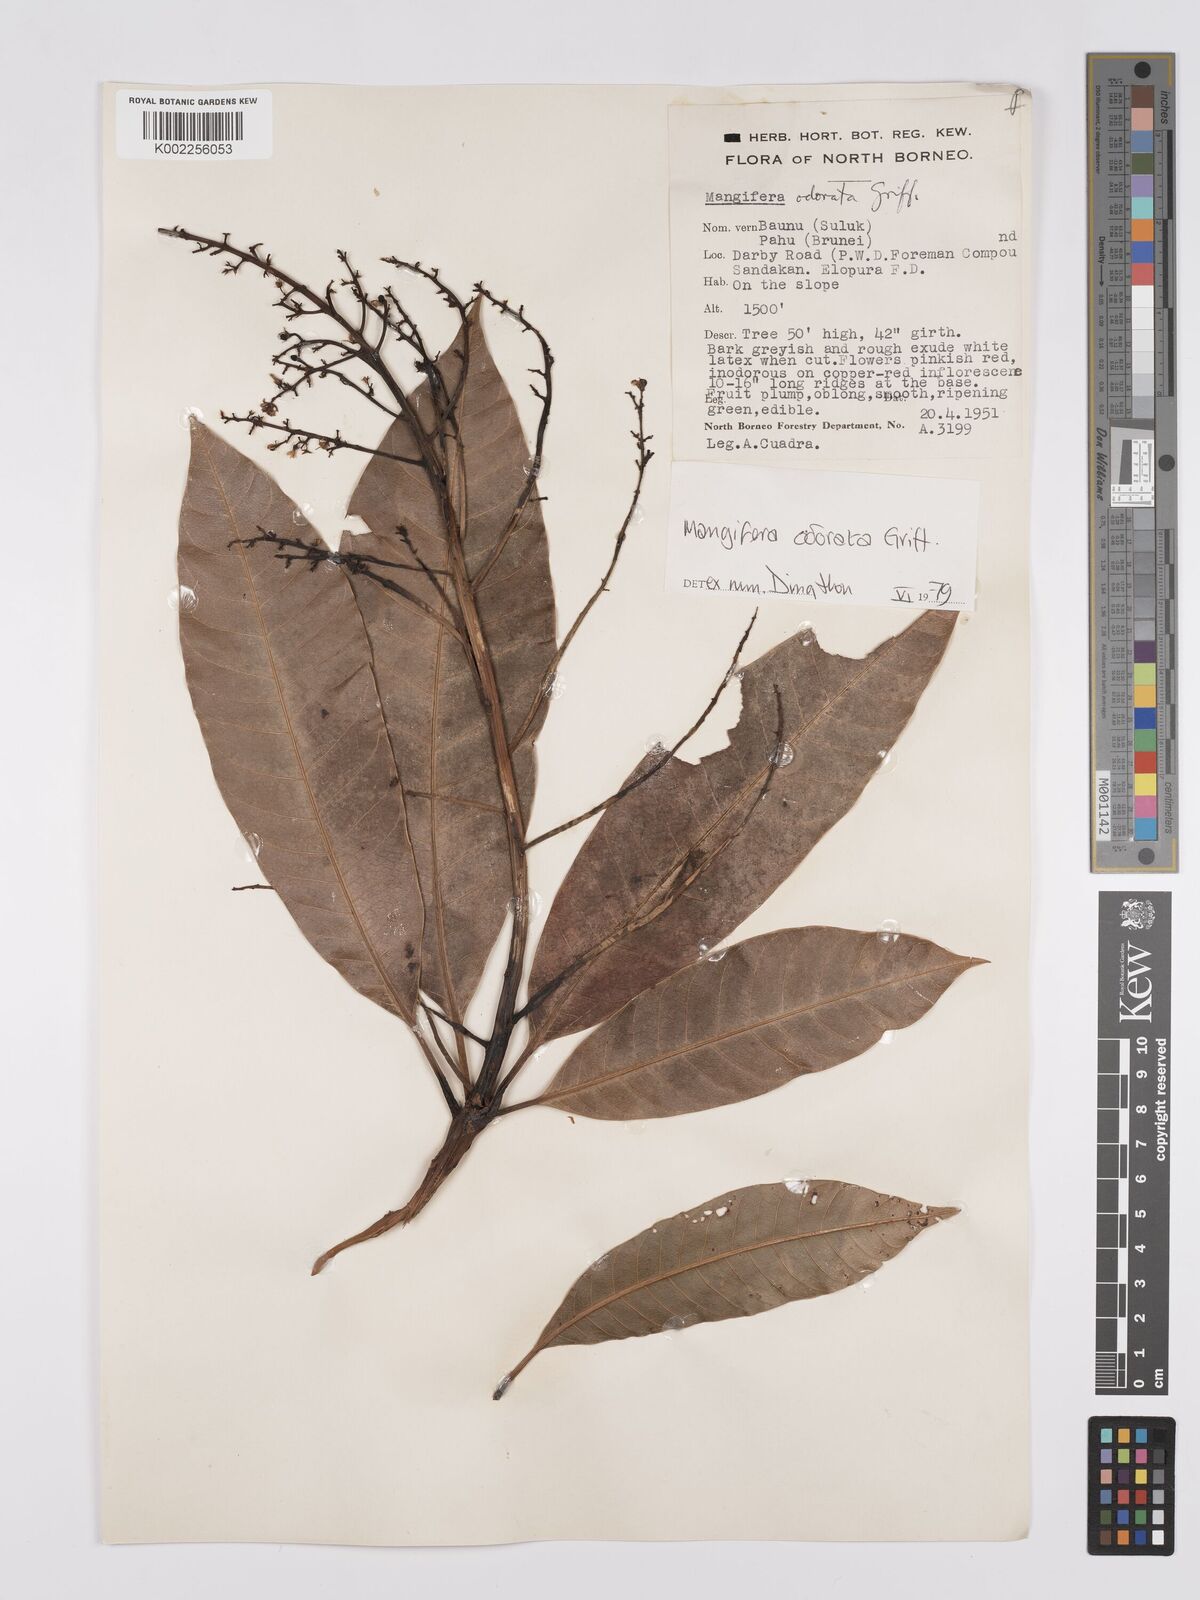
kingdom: Plantae
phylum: Tracheophyta
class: Magnoliopsida
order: Sapindales
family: Anacardiaceae
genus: Mangifera
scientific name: Mangifera odorata
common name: Saipan mango
